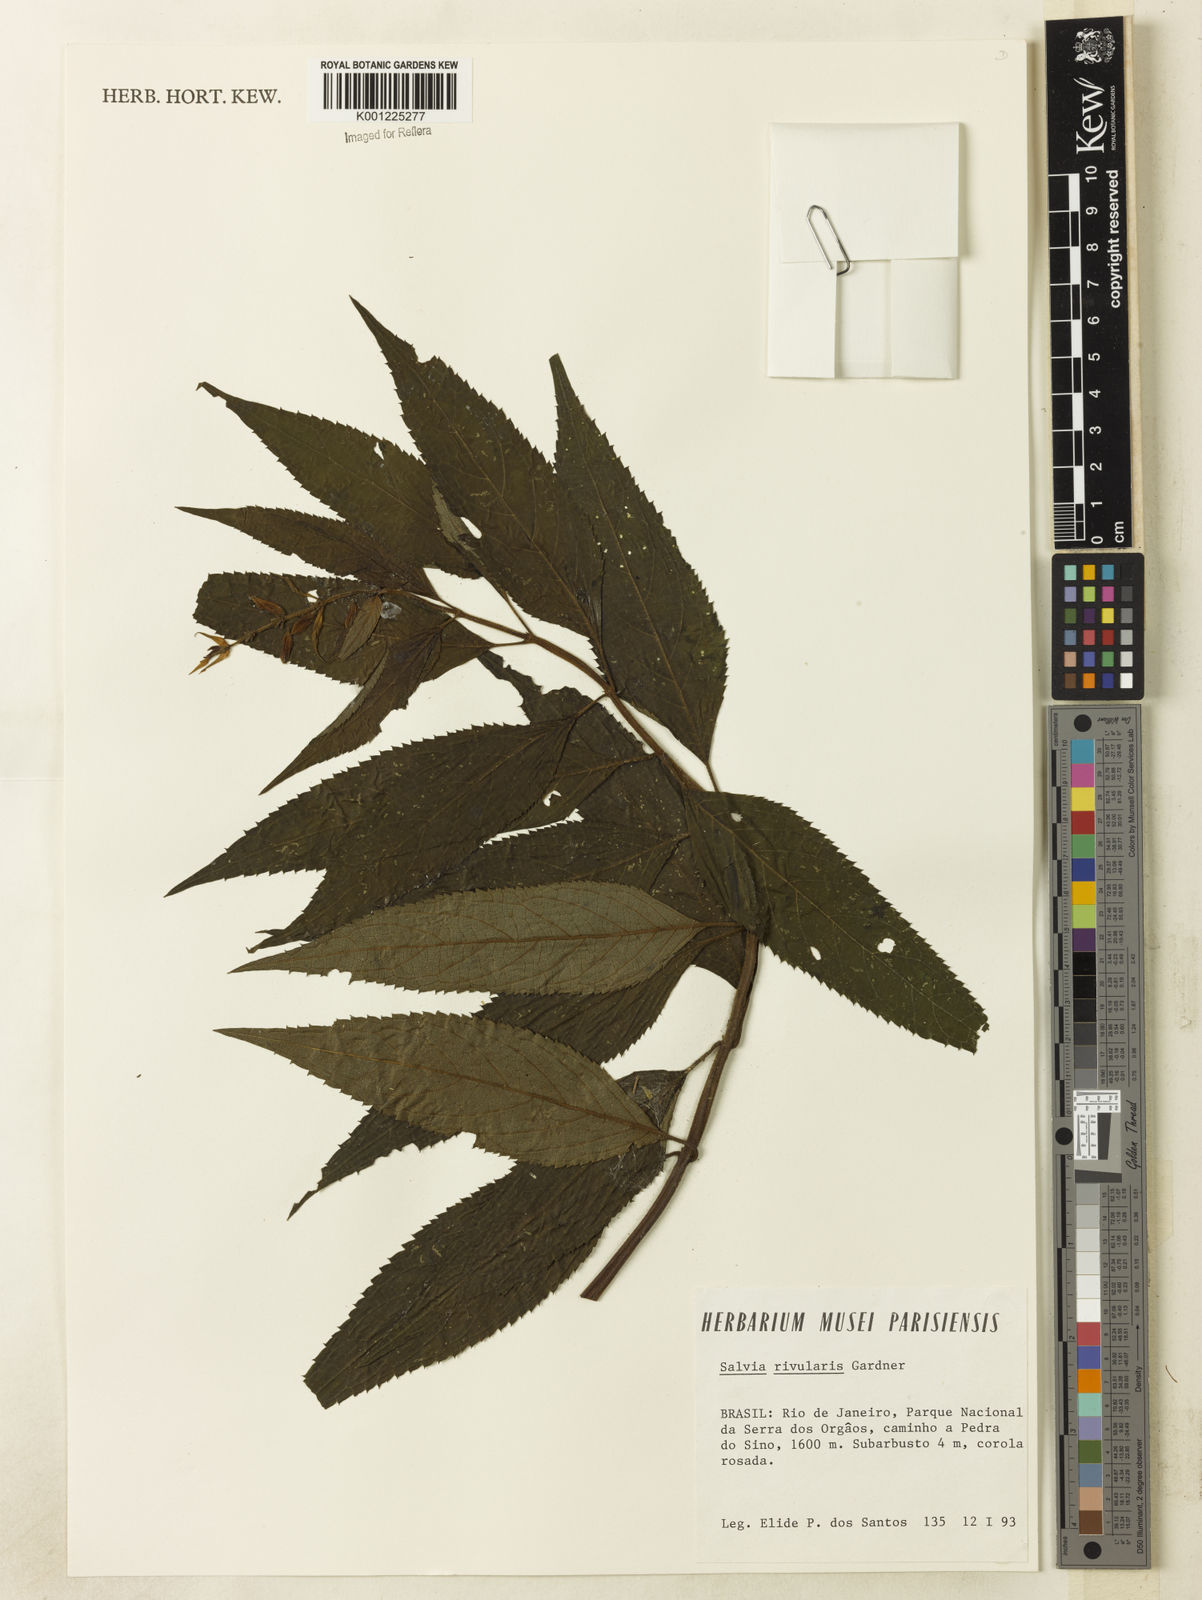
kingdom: Plantae
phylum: Tracheophyta
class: Magnoliopsida
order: Lamiales
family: Lamiaceae
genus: Salvia
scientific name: Salvia rivularis
